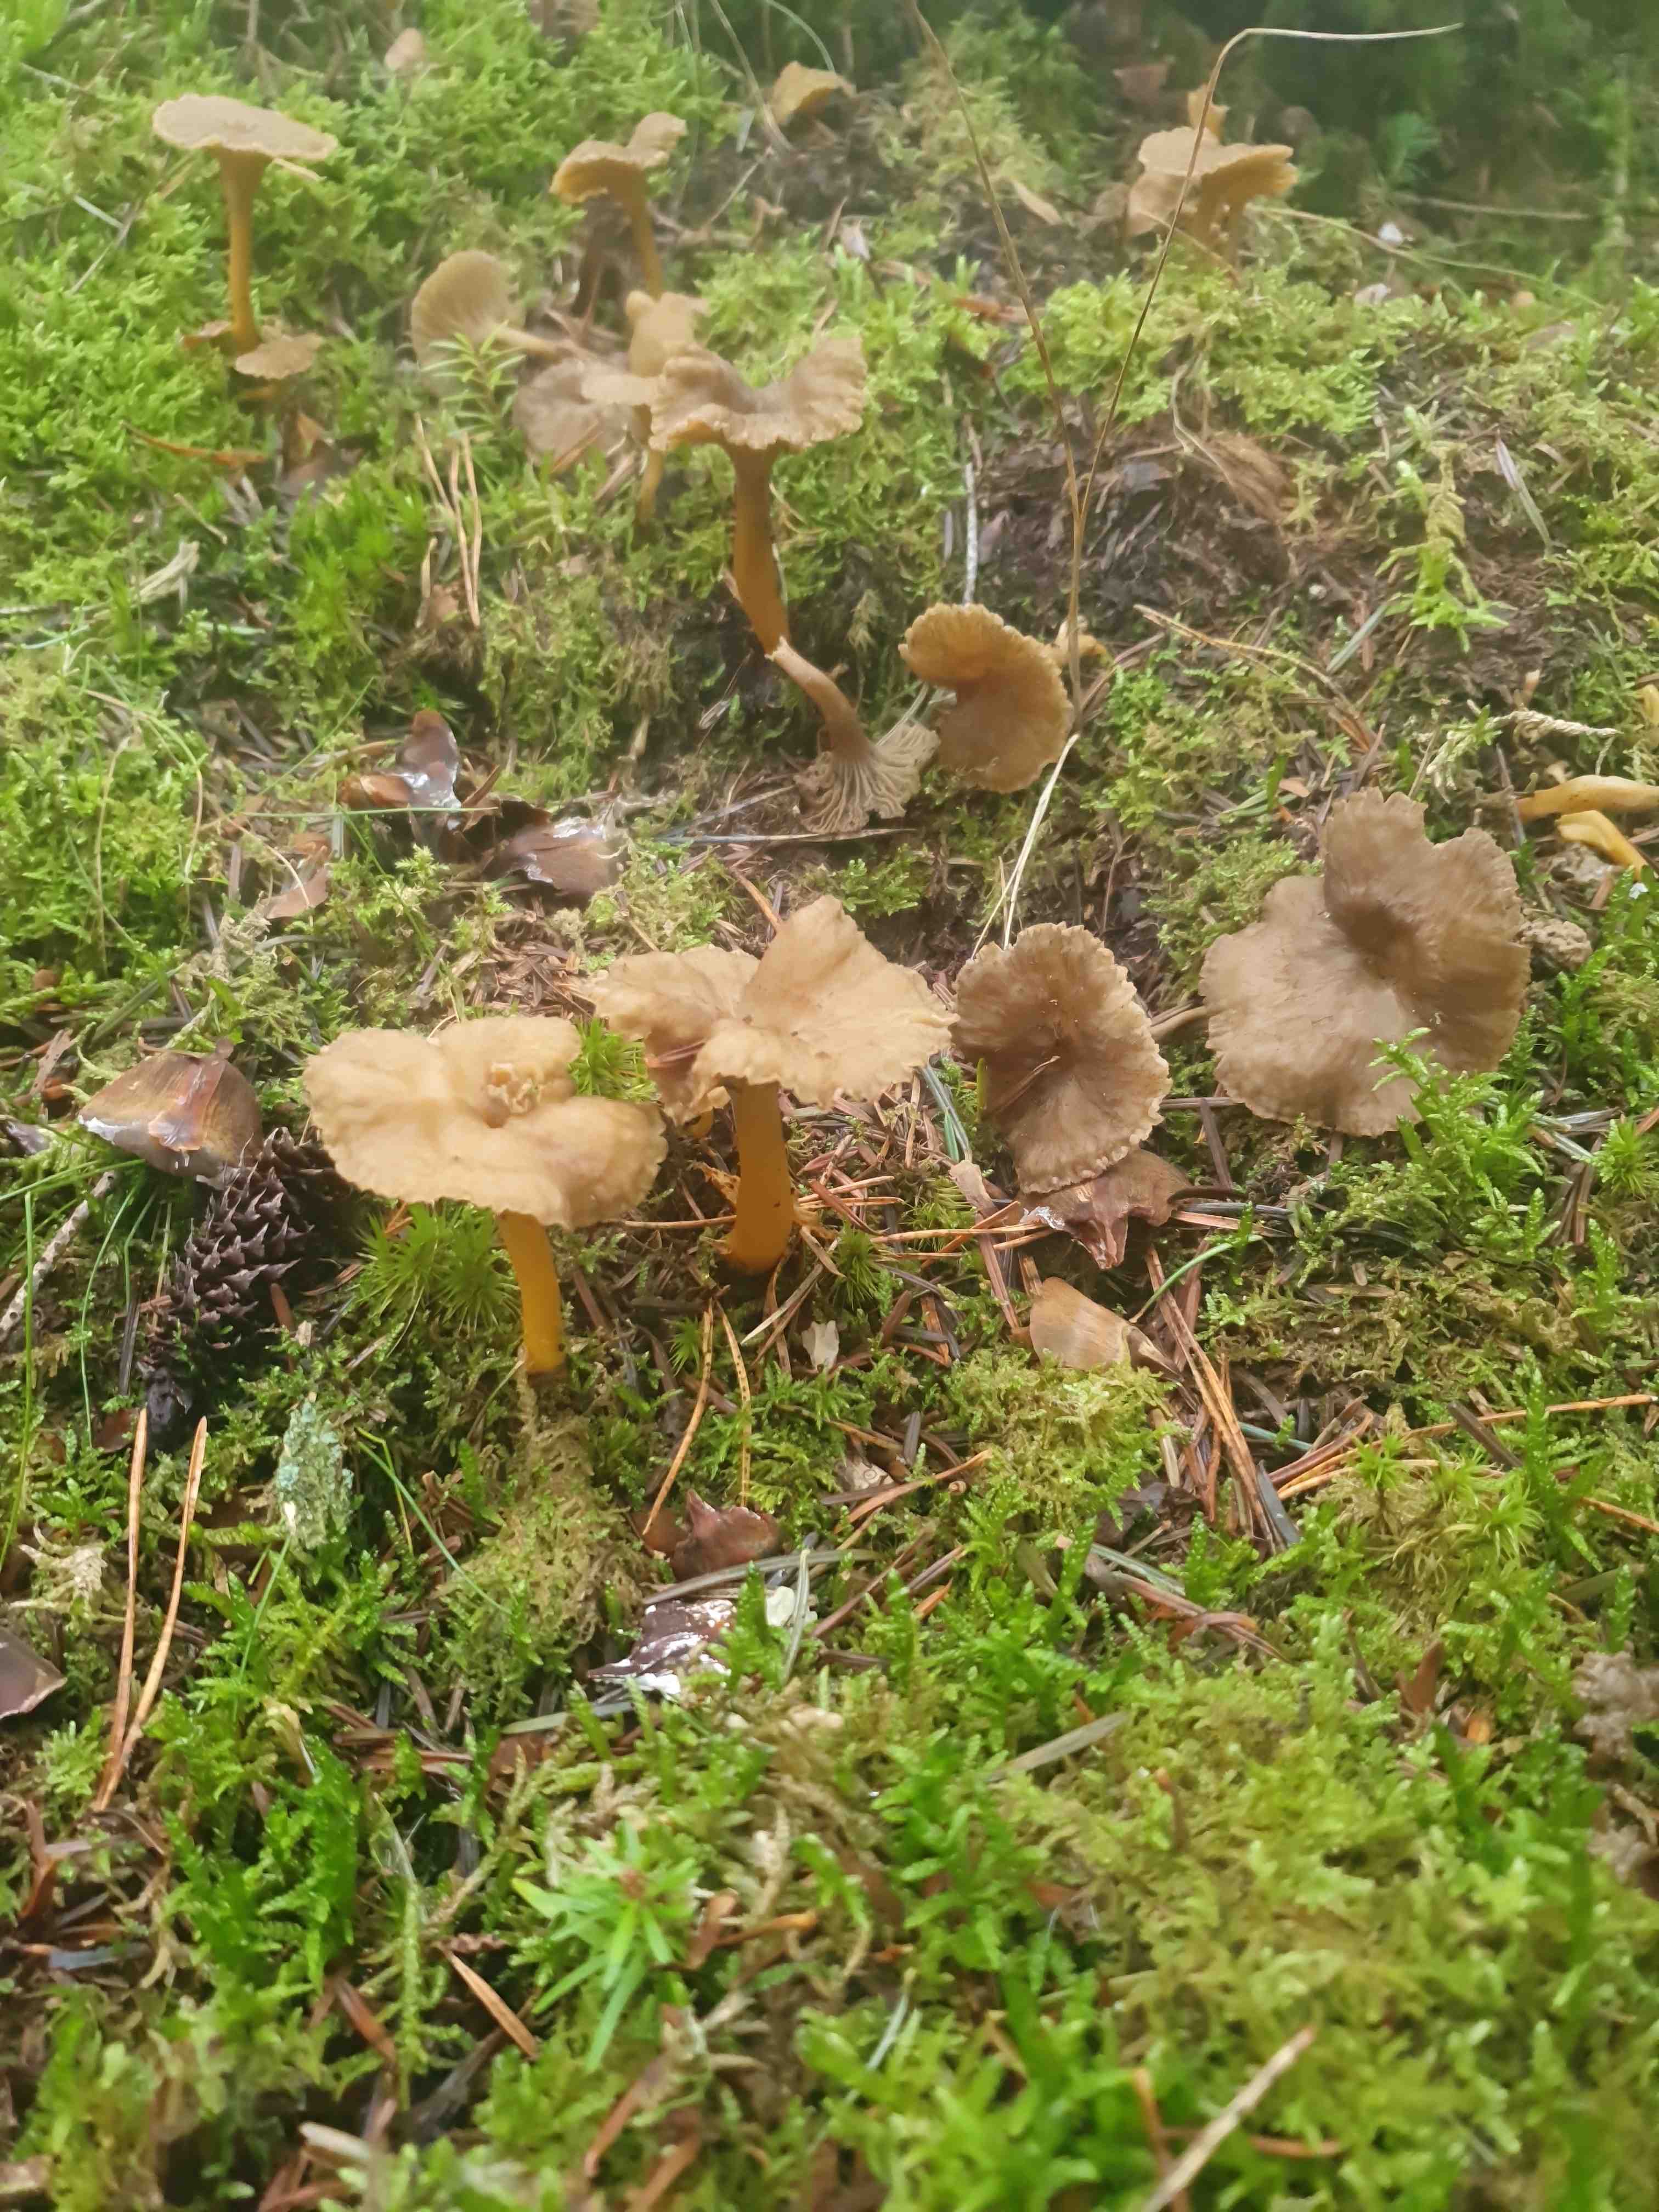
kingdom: Fungi
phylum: Basidiomycota
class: Agaricomycetes
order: Cantharellales
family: Hydnaceae
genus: Craterellus
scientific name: Craterellus tubaeformis
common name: tragt-kantarel
